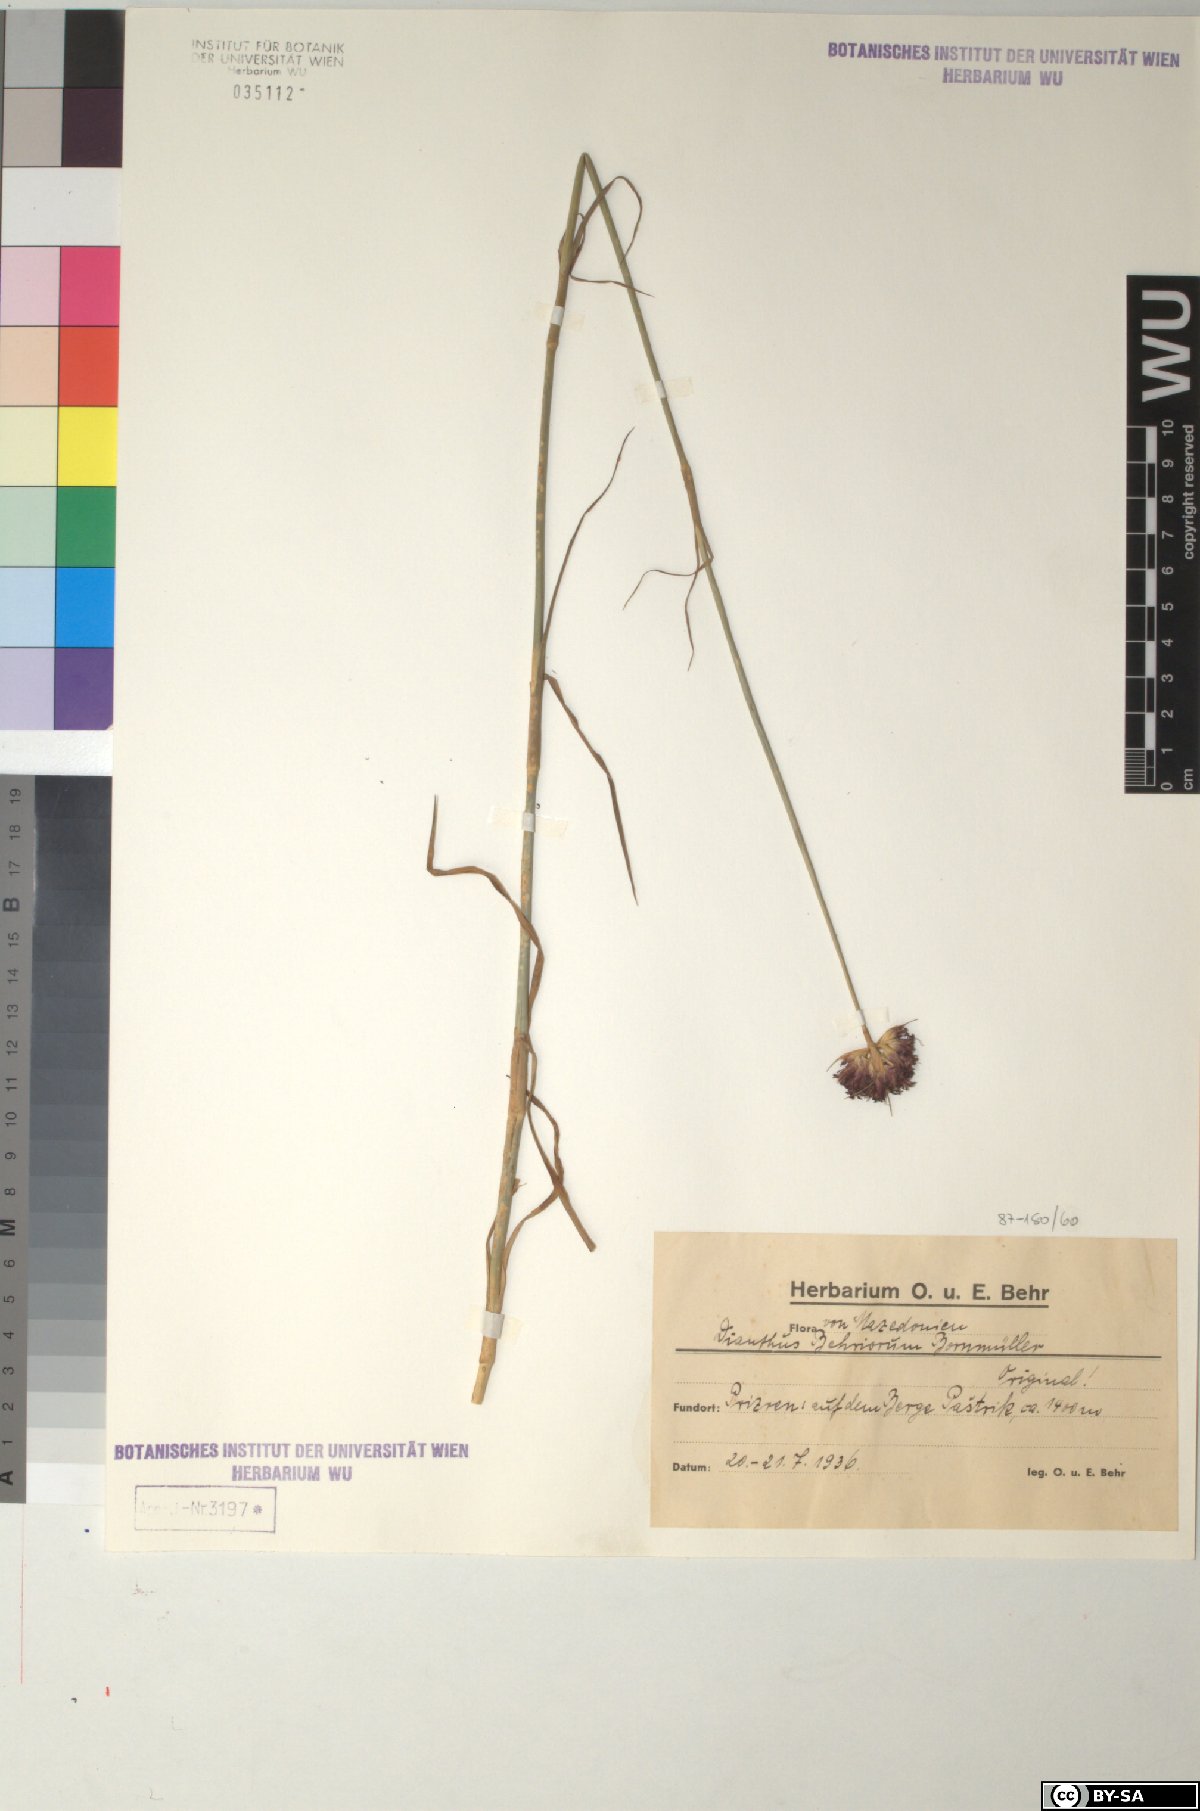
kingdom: Plantae
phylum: Tracheophyta
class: Magnoliopsida
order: Caryophyllales
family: Caryophyllaceae
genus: Dianthus
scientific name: Dianthus carthusianorum
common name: Carthusian pink
